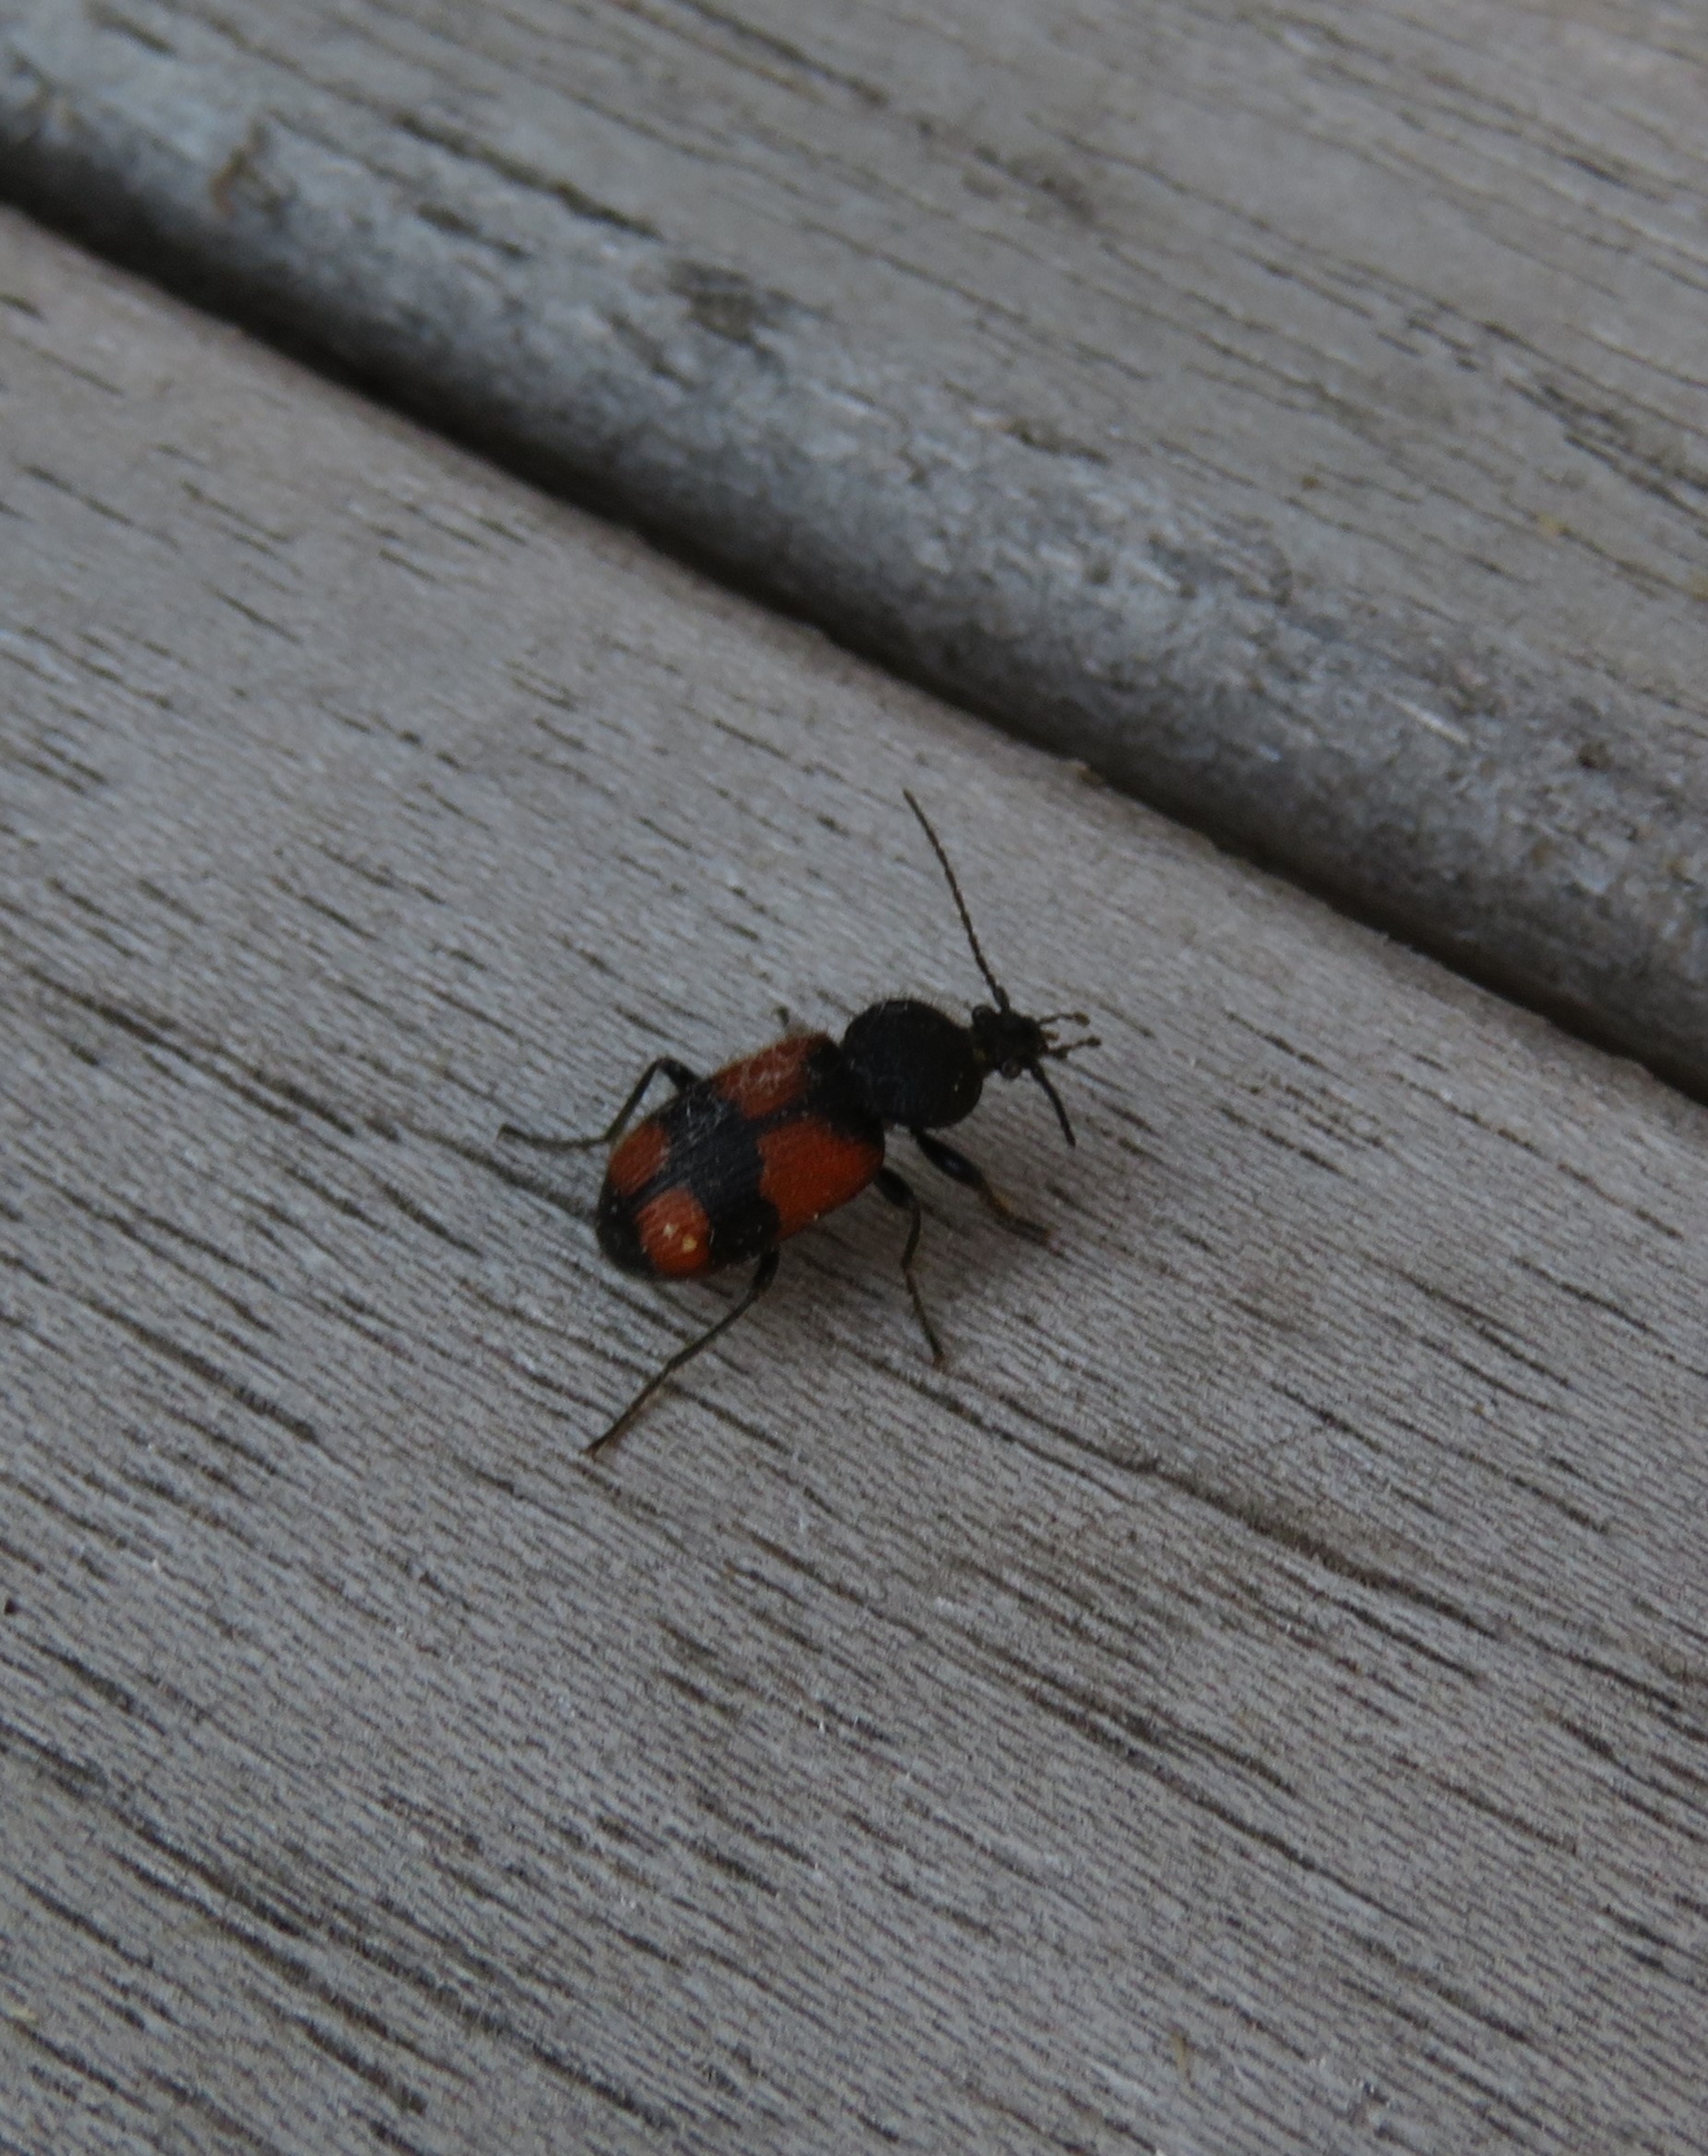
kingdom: Animalia
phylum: Arthropoda
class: Insecta
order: Coleoptera
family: Carabidae
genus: Panagaeus
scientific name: Panagaeus cruxmajor
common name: Stor korsløber
